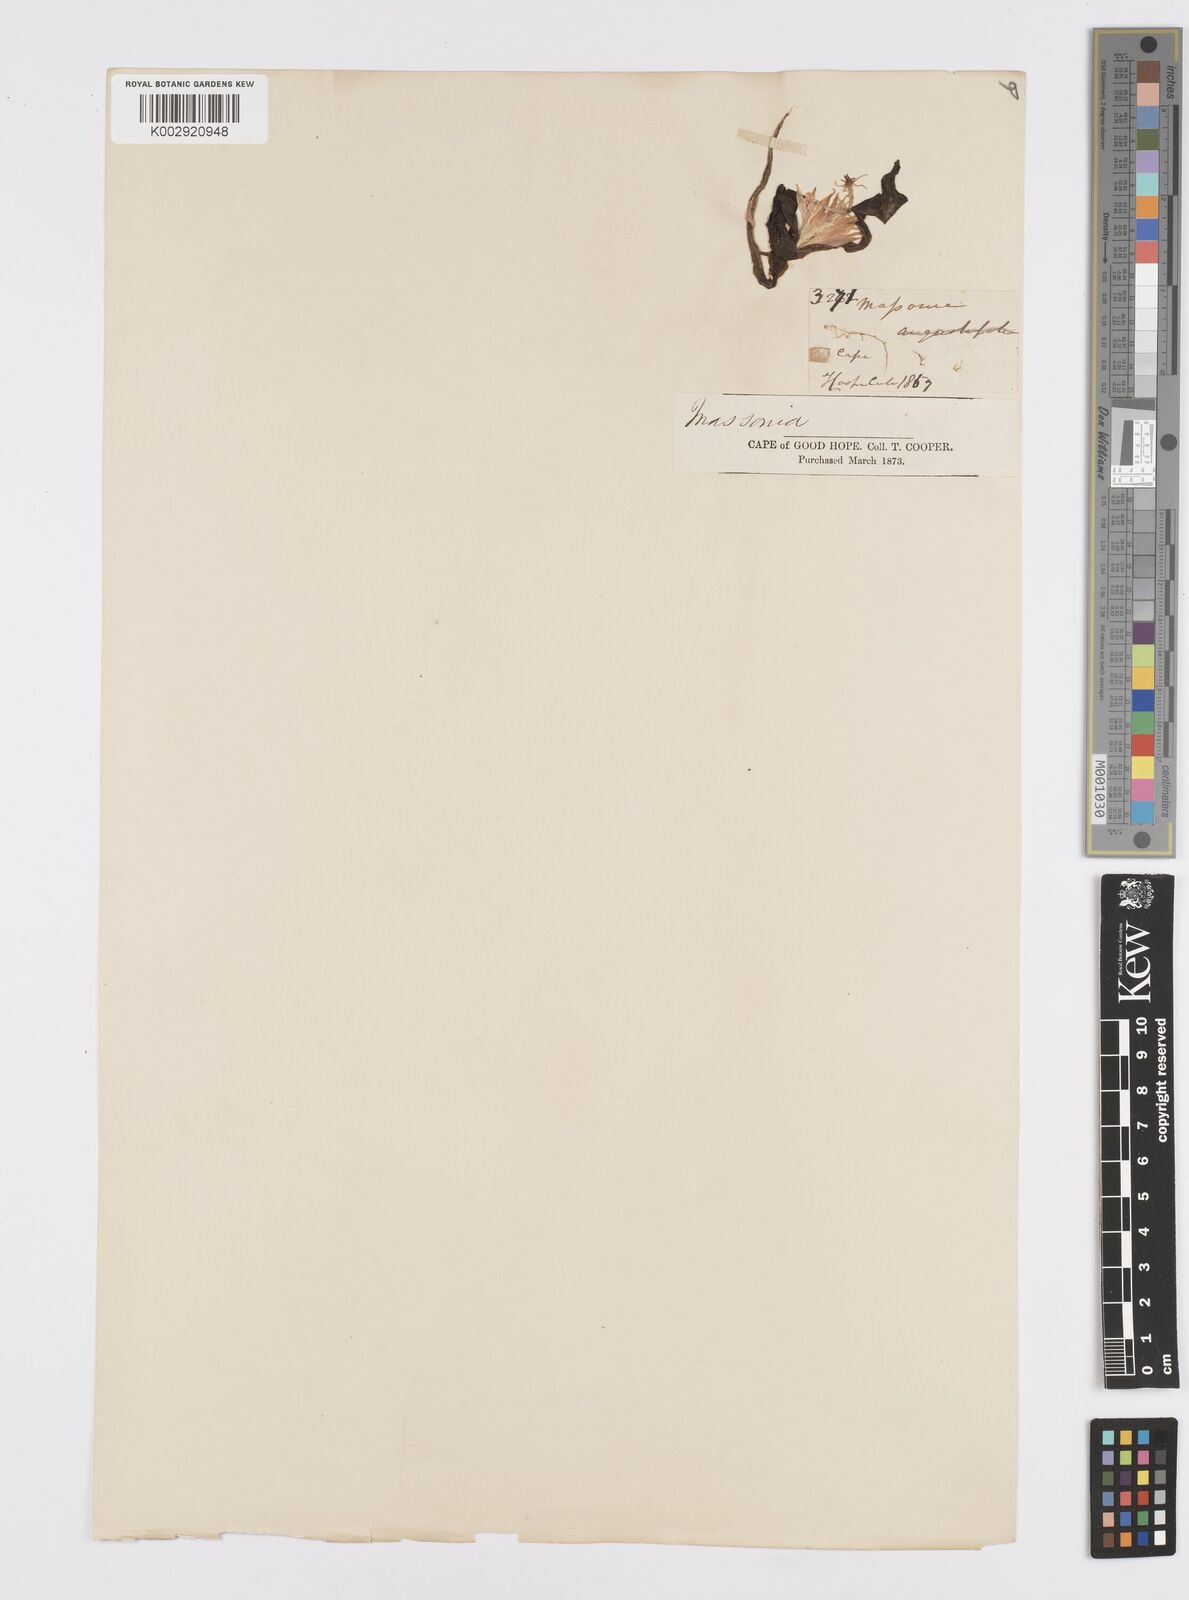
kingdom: Plantae
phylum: Tracheophyta
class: Liliopsida
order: Asparagales
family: Asparagaceae
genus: Lachenalia
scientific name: Lachenalia ensifolia
